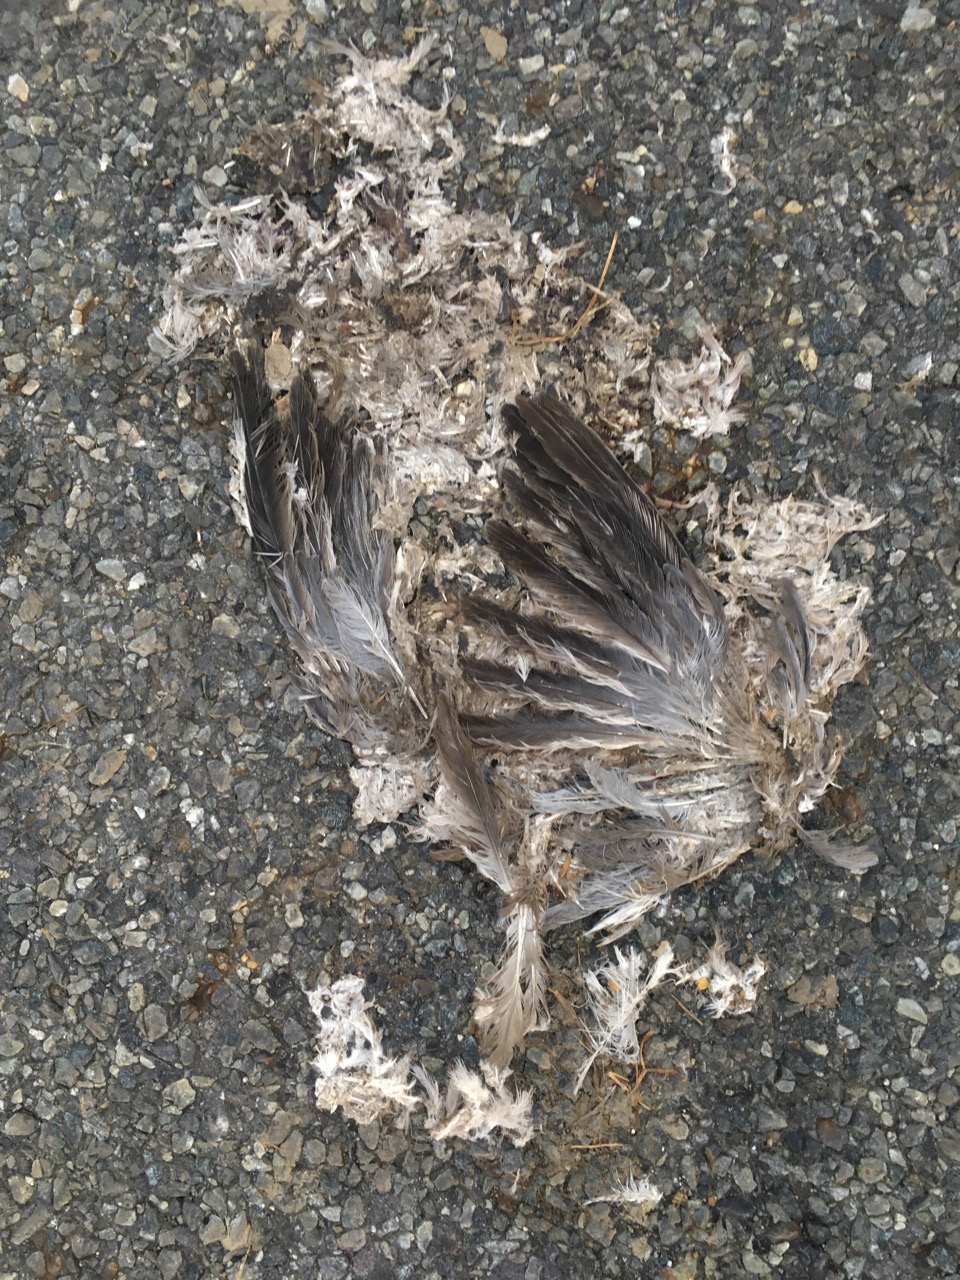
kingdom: Animalia
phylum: Chordata
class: Aves
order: Columbiformes
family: Columbidae
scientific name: Columbidae
